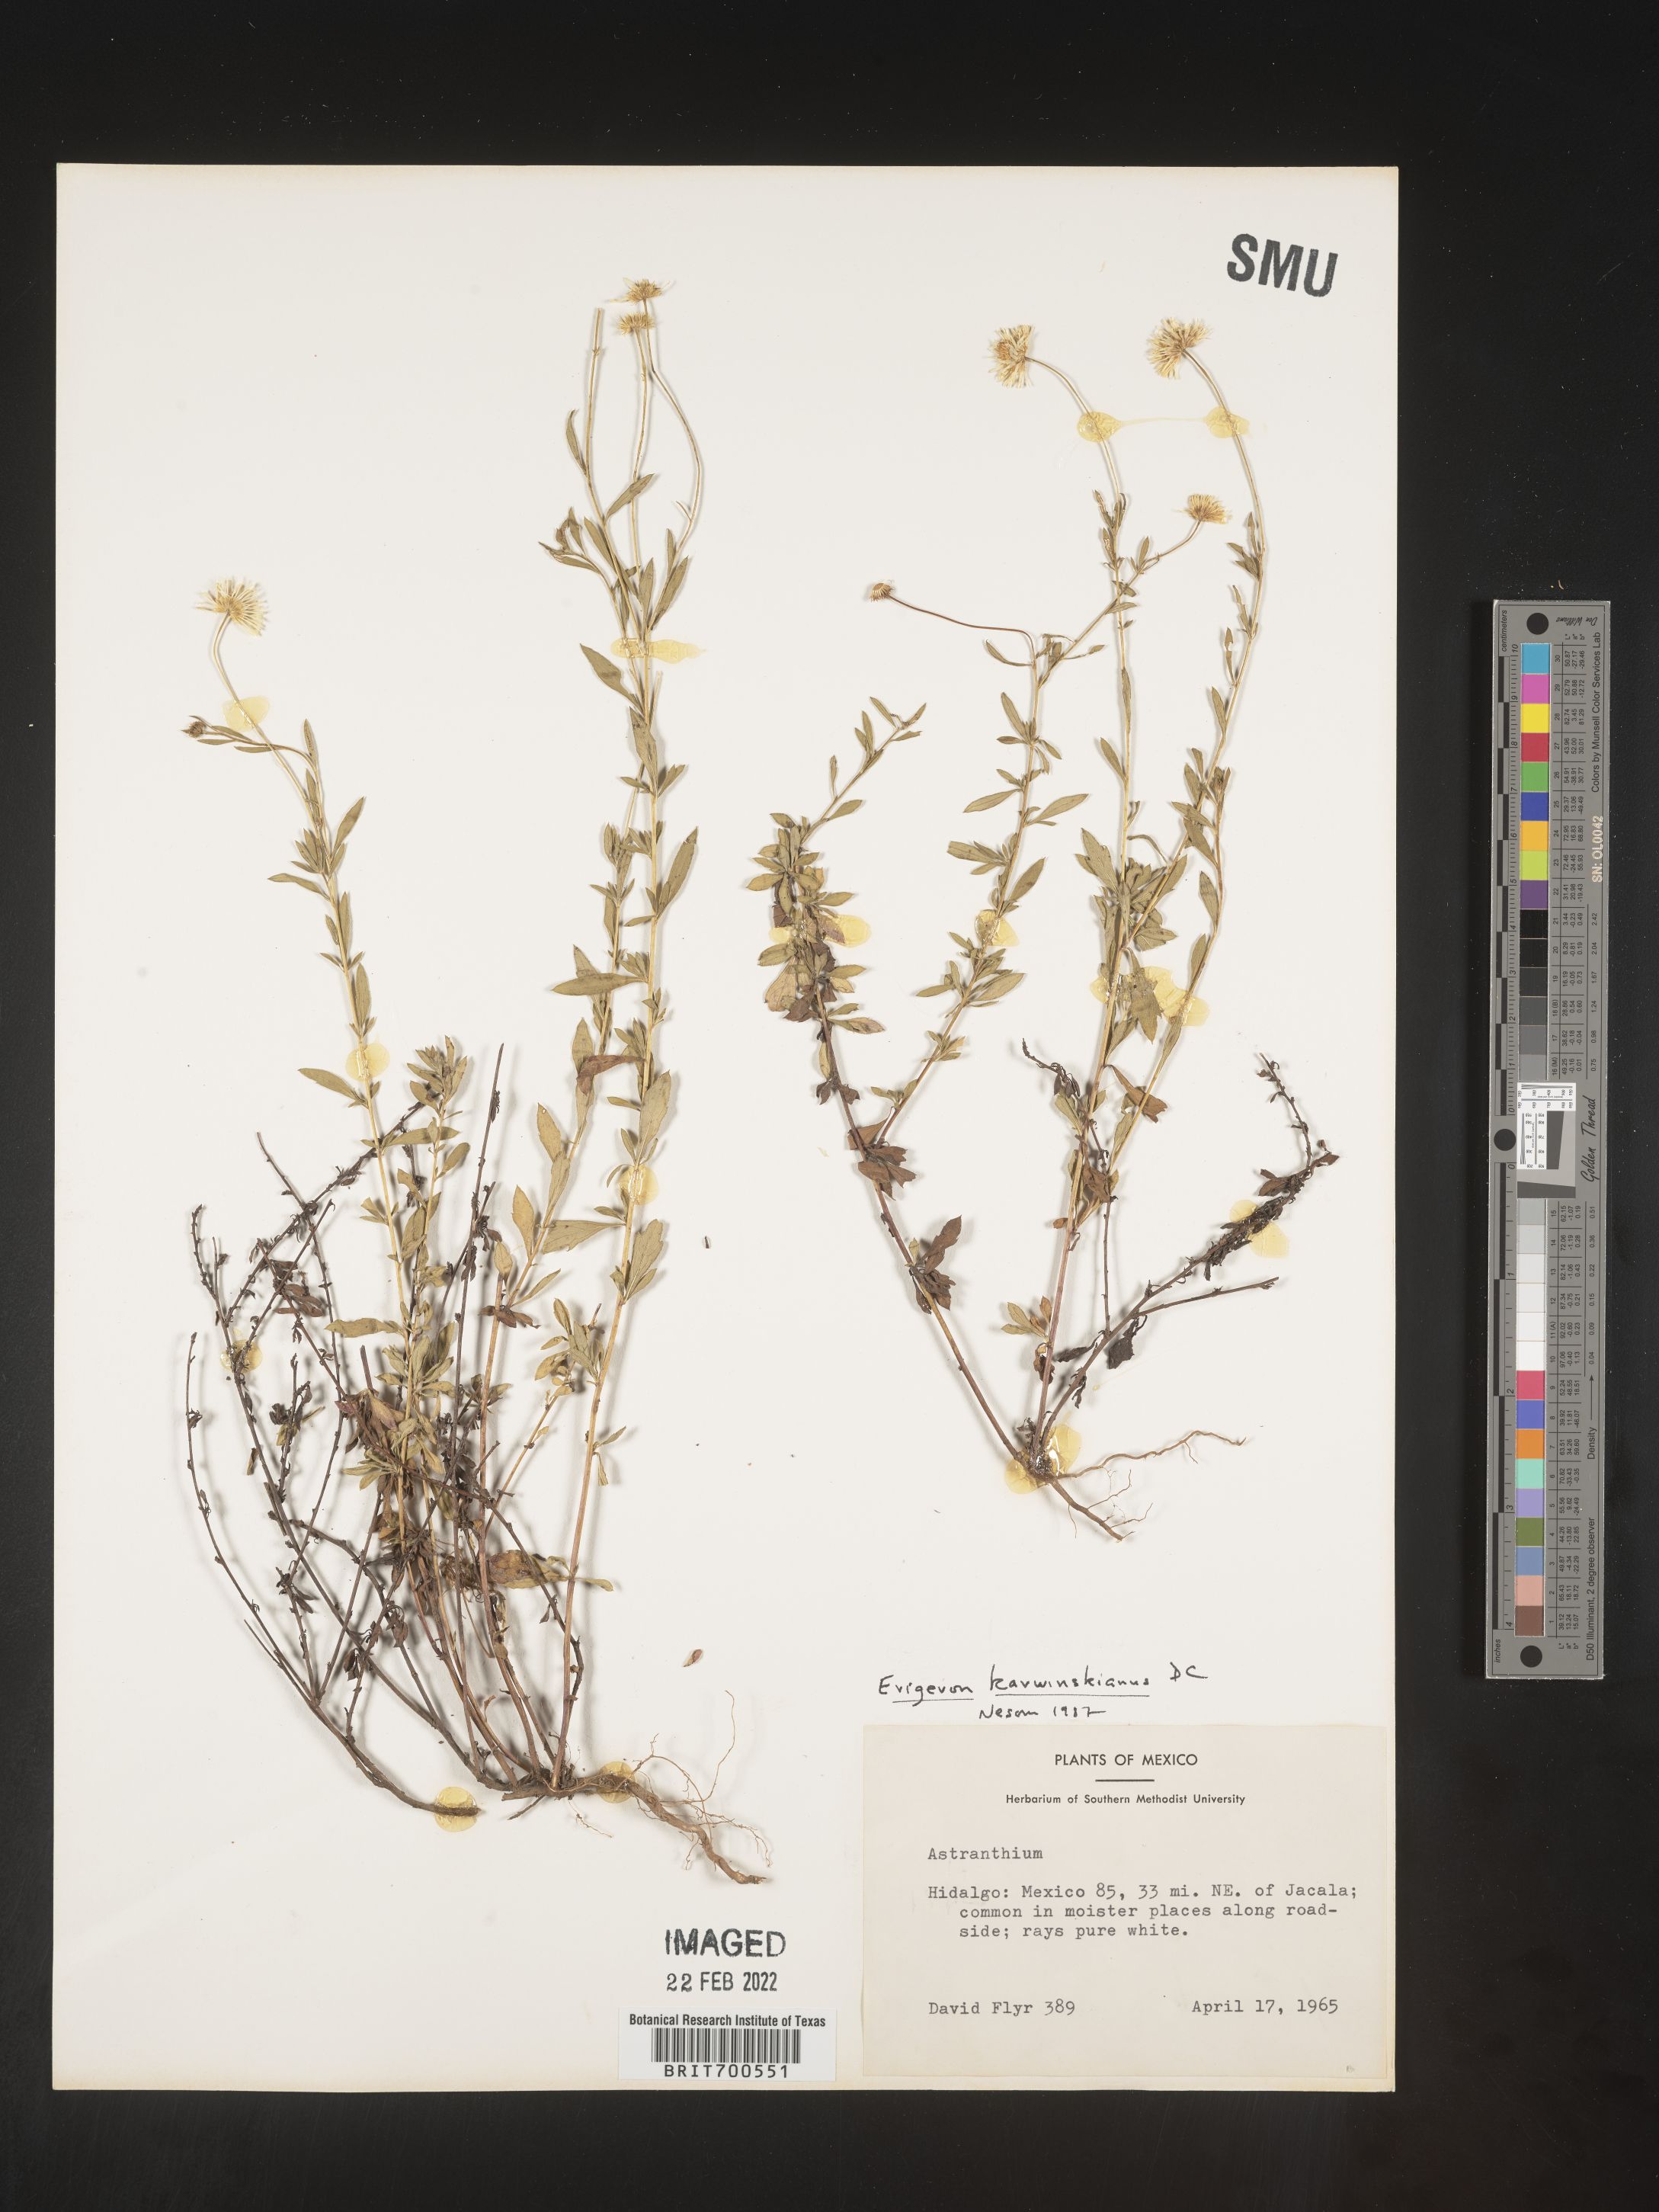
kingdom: Plantae
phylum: Tracheophyta
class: Magnoliopsida
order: Asterales
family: Asteraceae
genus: Erigeron
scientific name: Erigeron karvinskianus
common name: Mexican fleabane
